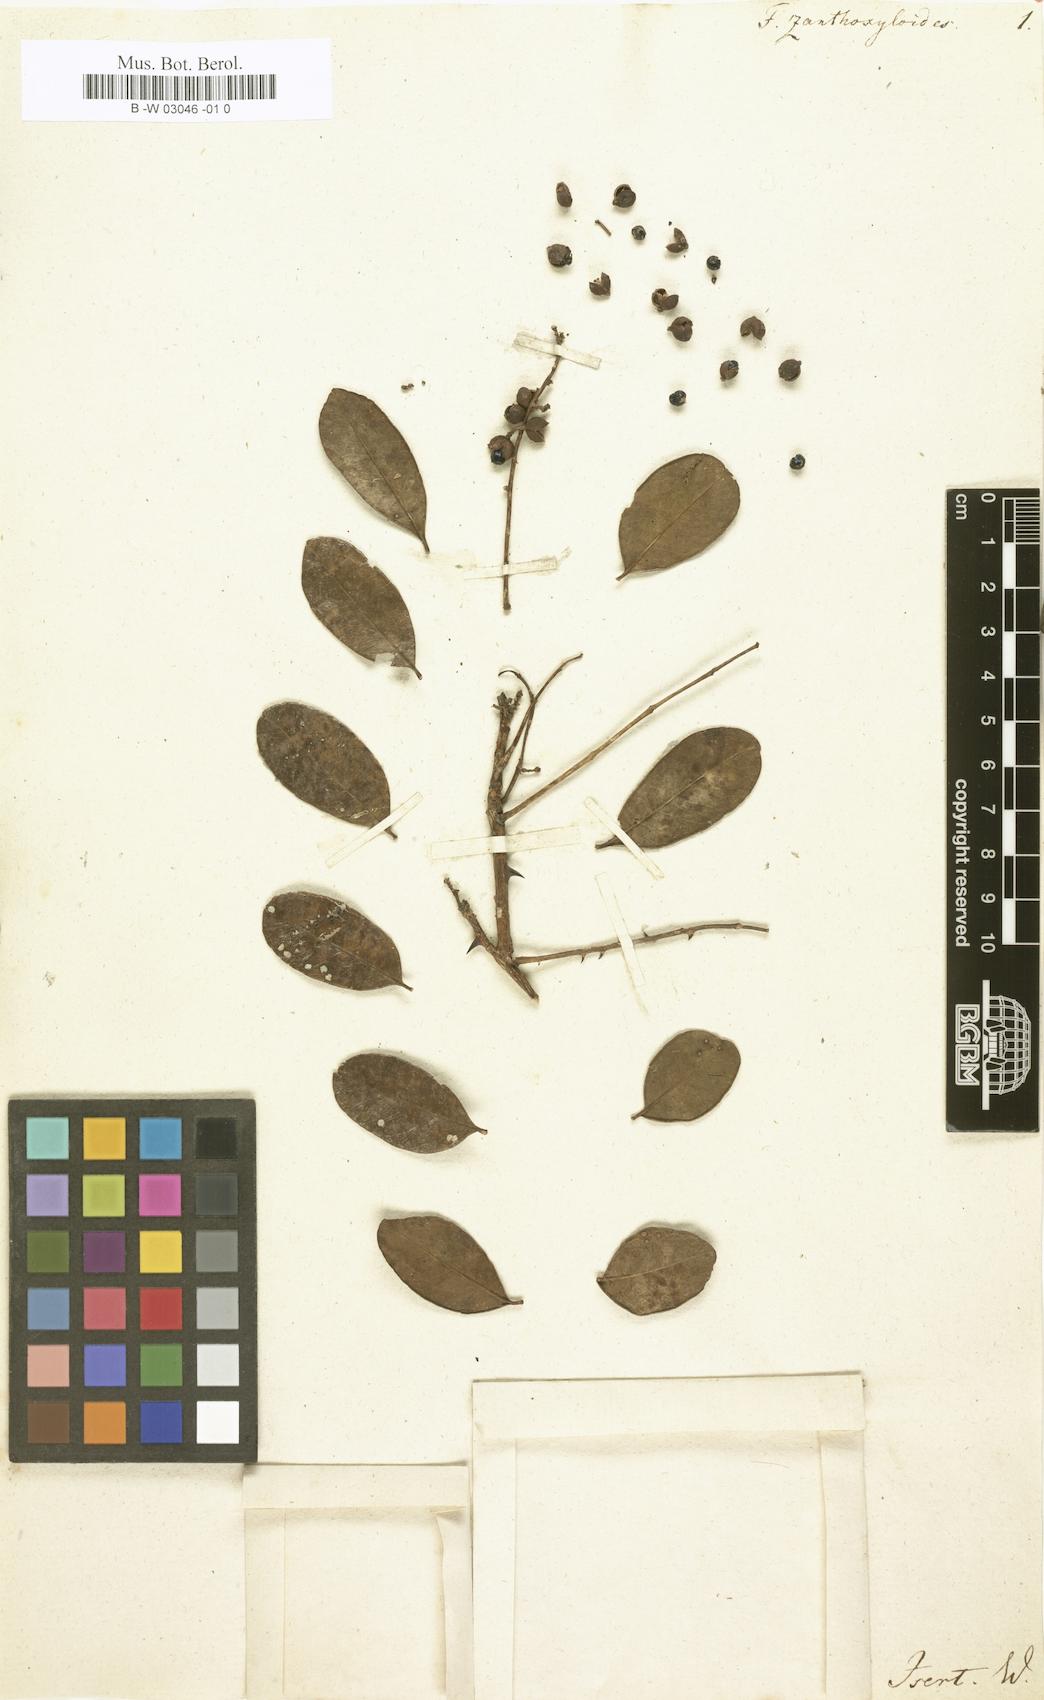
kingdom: Plantae
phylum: Tracheophyta
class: Magnoliopsida
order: Sapindales
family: Rutaceae
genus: Zanthoxylum
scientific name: Zanthoxylum zanthoxyloides
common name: Senegal prickly-ash
